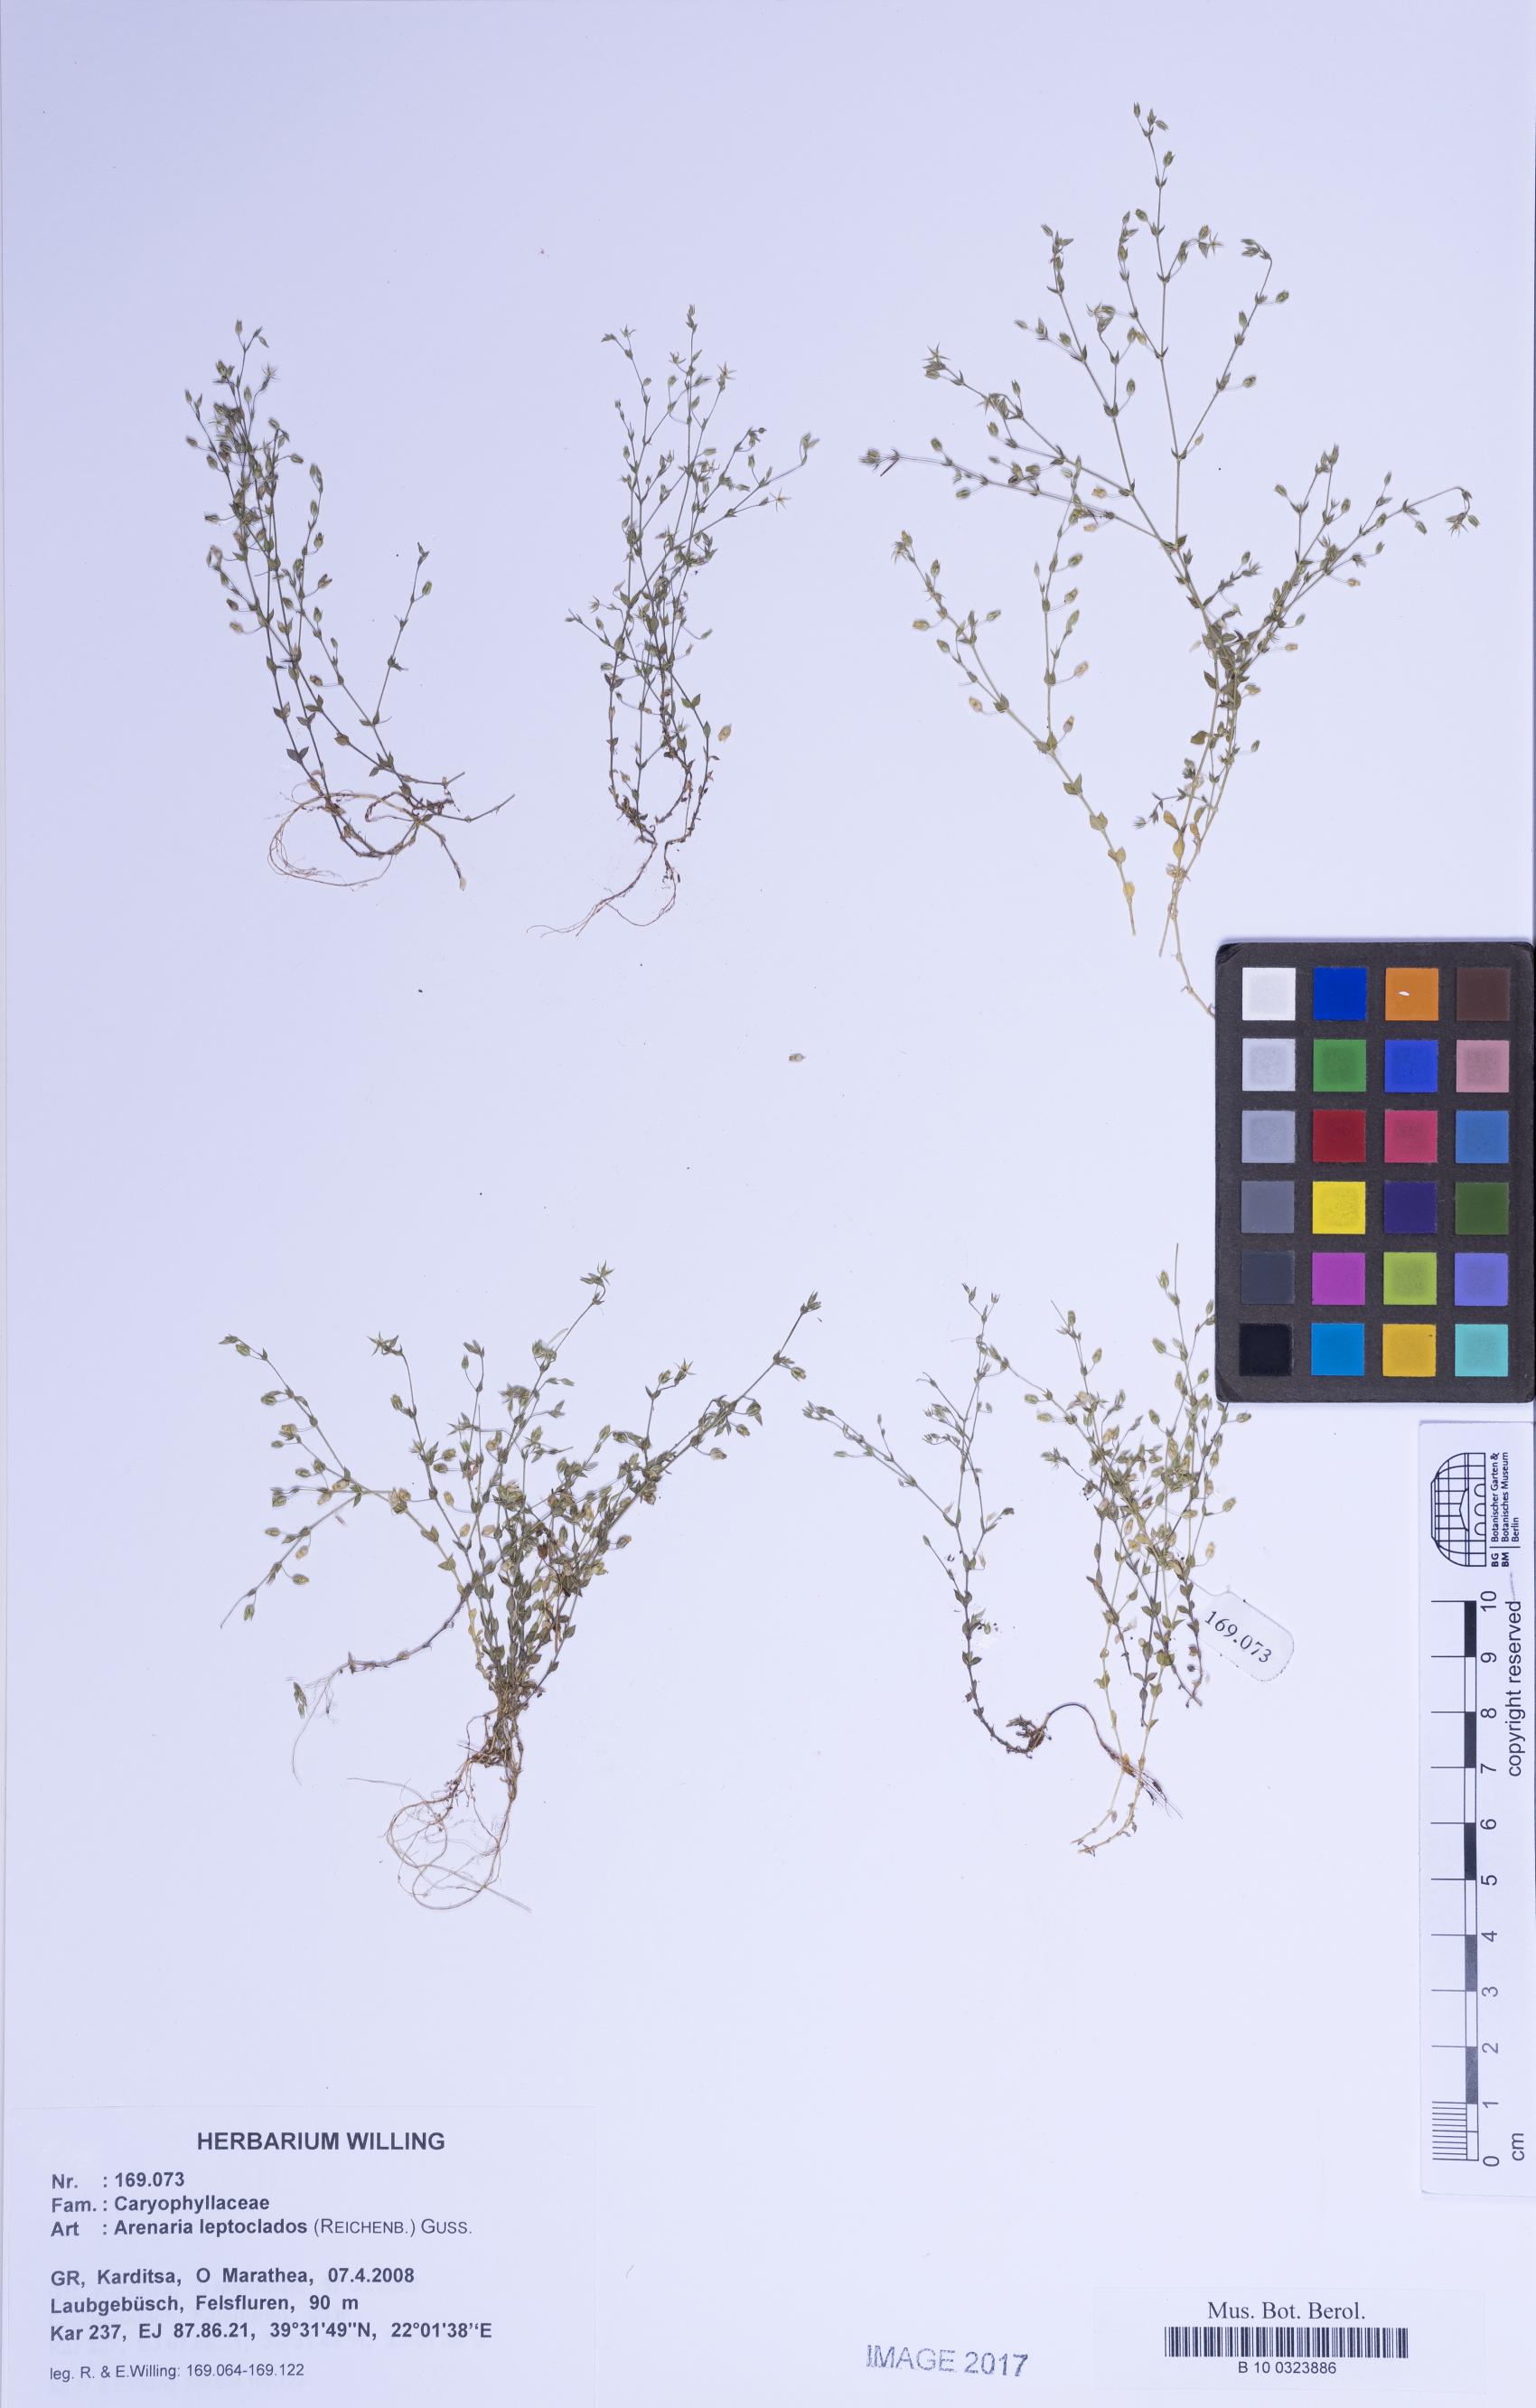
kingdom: Plantae
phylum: Tracheophyta
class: Magnoliopsida
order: Caryophyllales
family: Caryophyllaceae
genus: Arenaria
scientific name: Arenaria leptoclados
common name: Thyme-leaved sandwort
